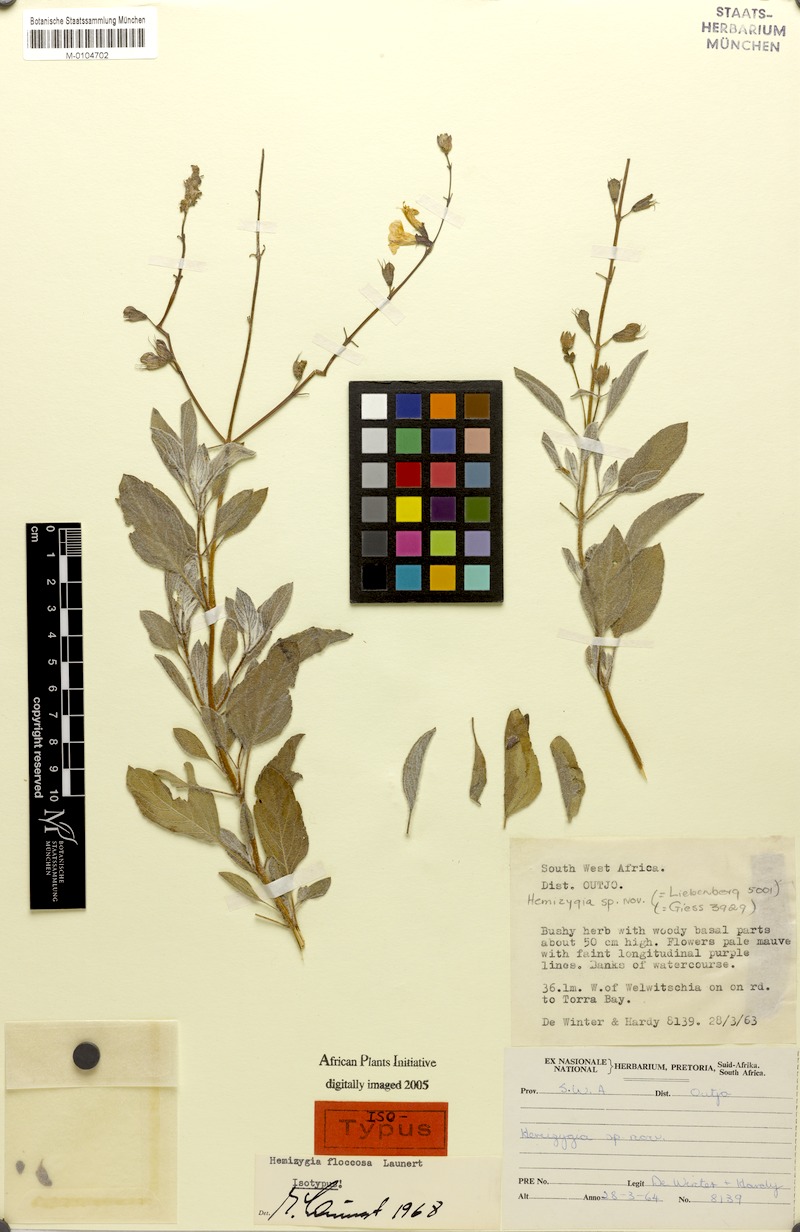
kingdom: Plantae
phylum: Tracheophyta
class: Magnoliopsida
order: Lamiales
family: Lamiaceae
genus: Syncolostemon
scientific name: Syncolostemon floccosus
